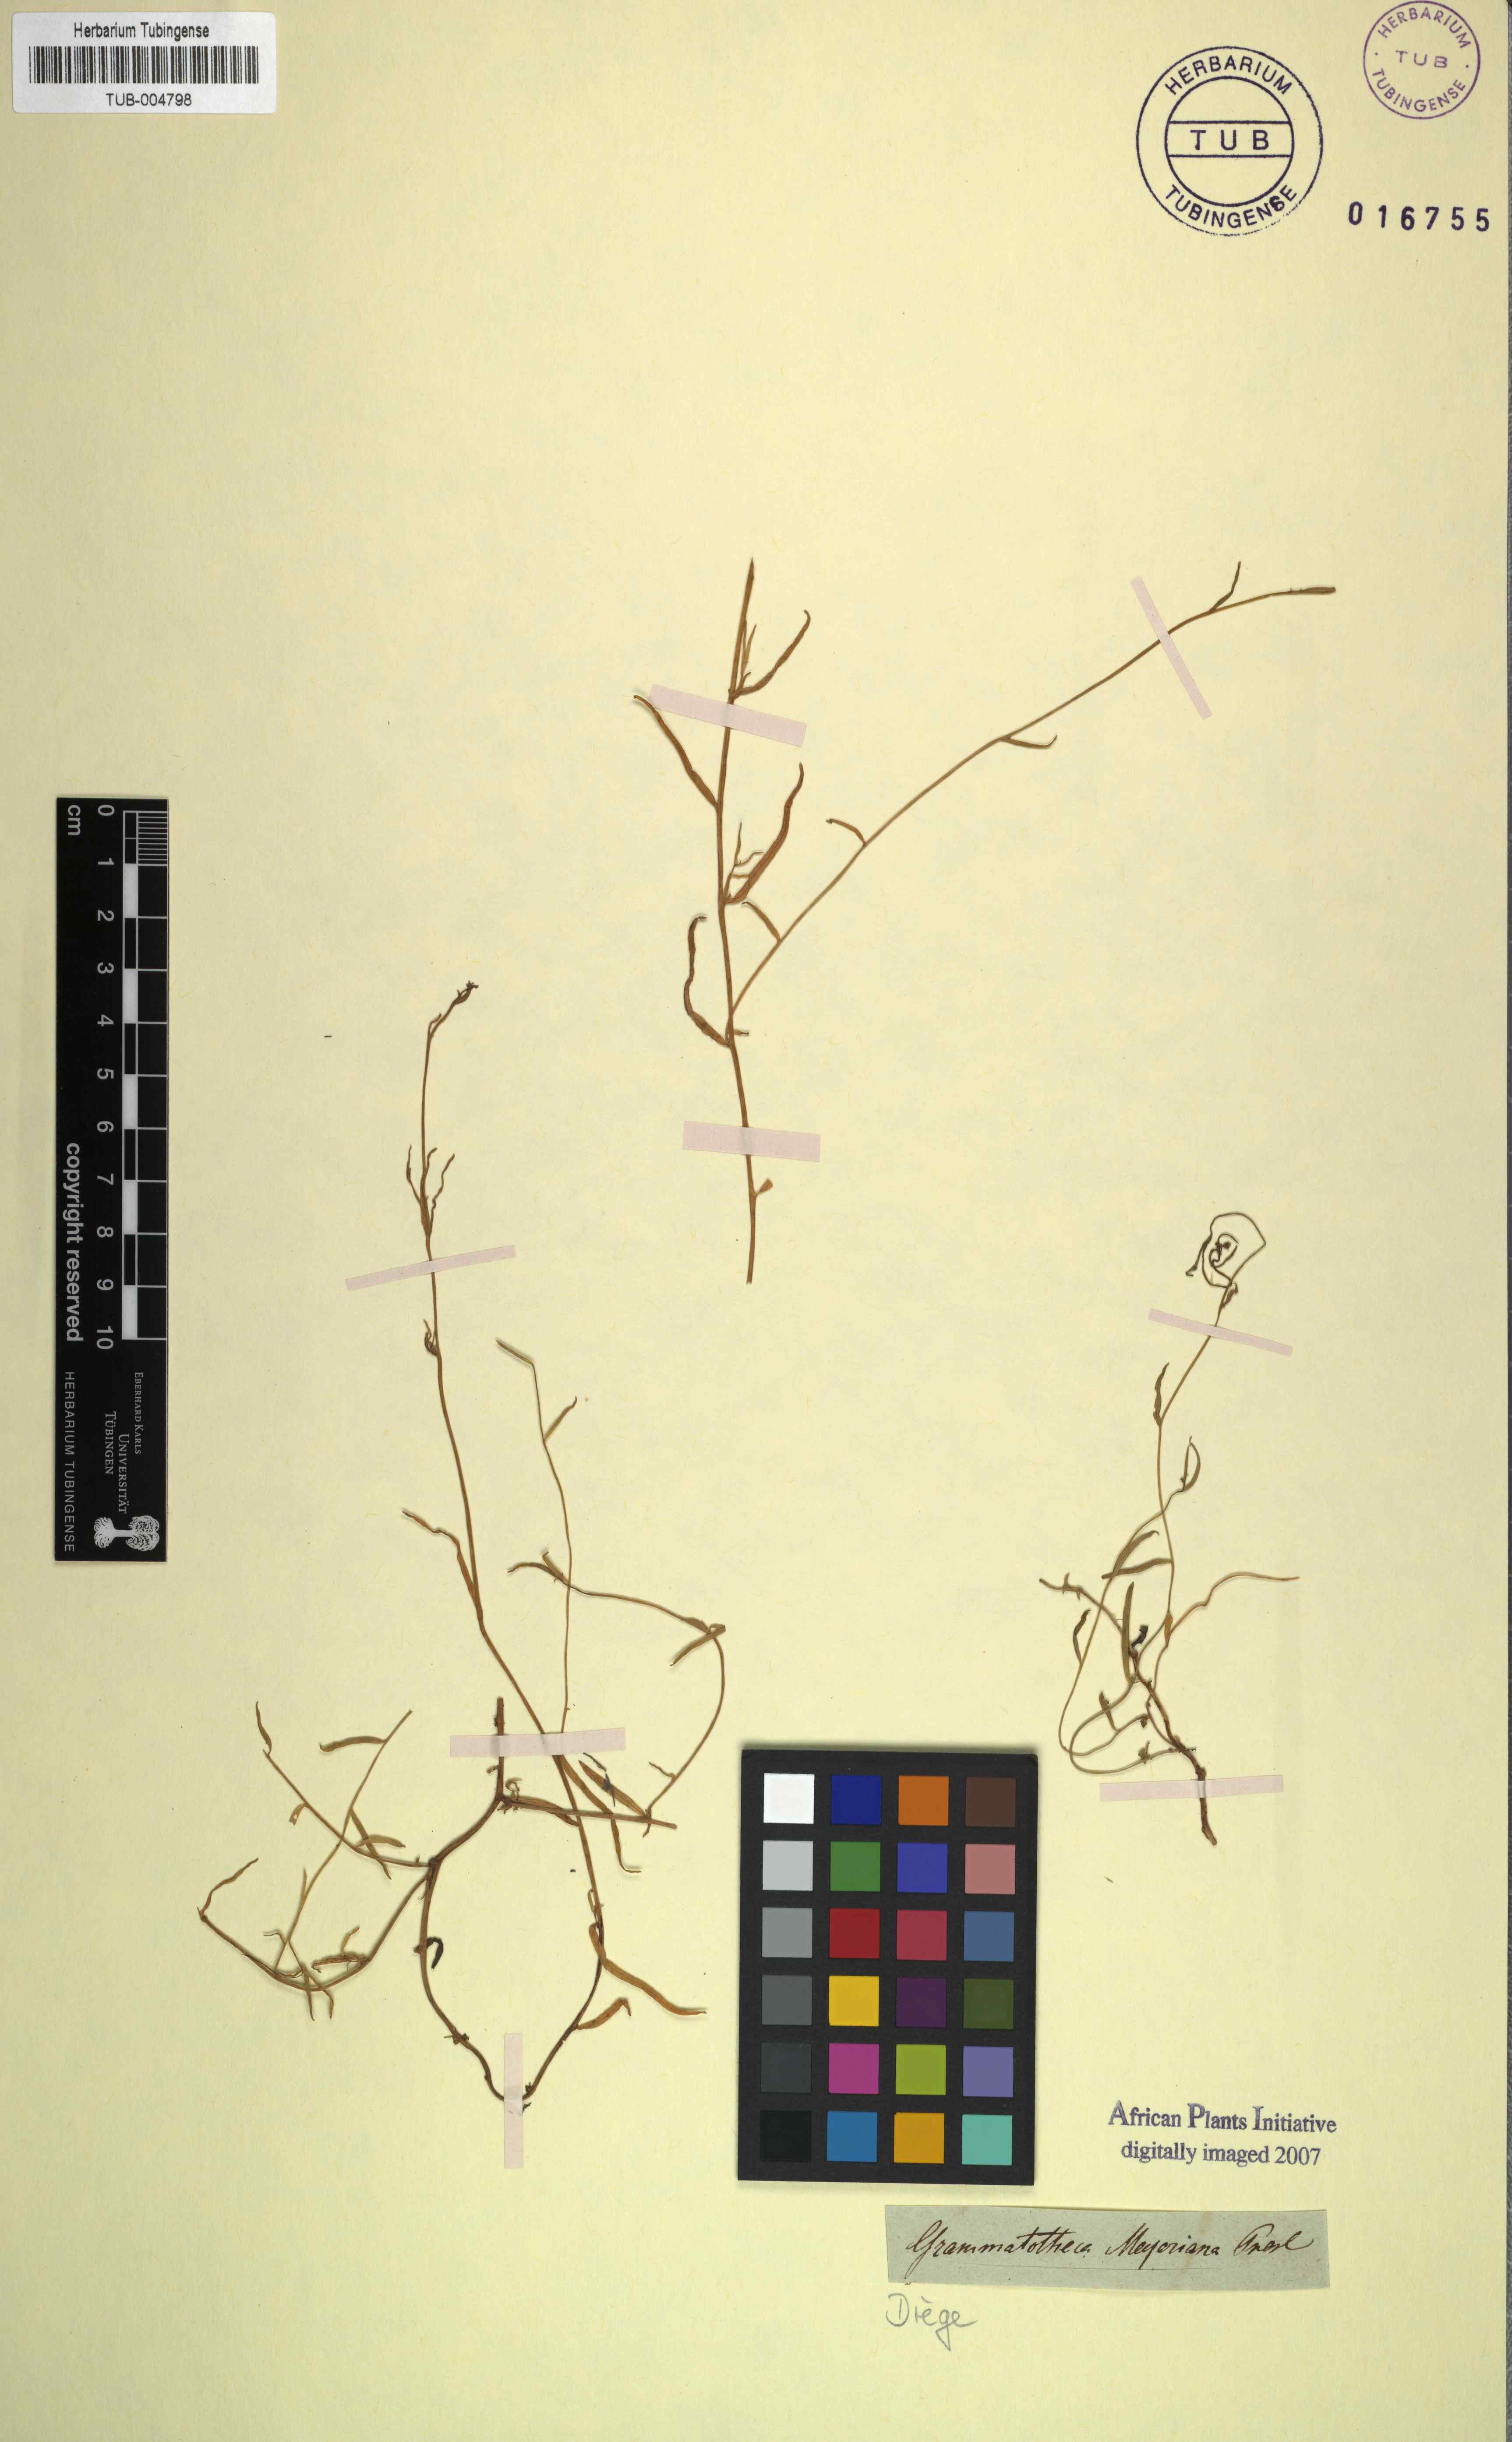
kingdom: Plantae
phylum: Tracheophyta
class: Magnoliopsida
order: Asterales
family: Campanulaceae
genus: Grammatotheca
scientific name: Grammatotheca bergiana
